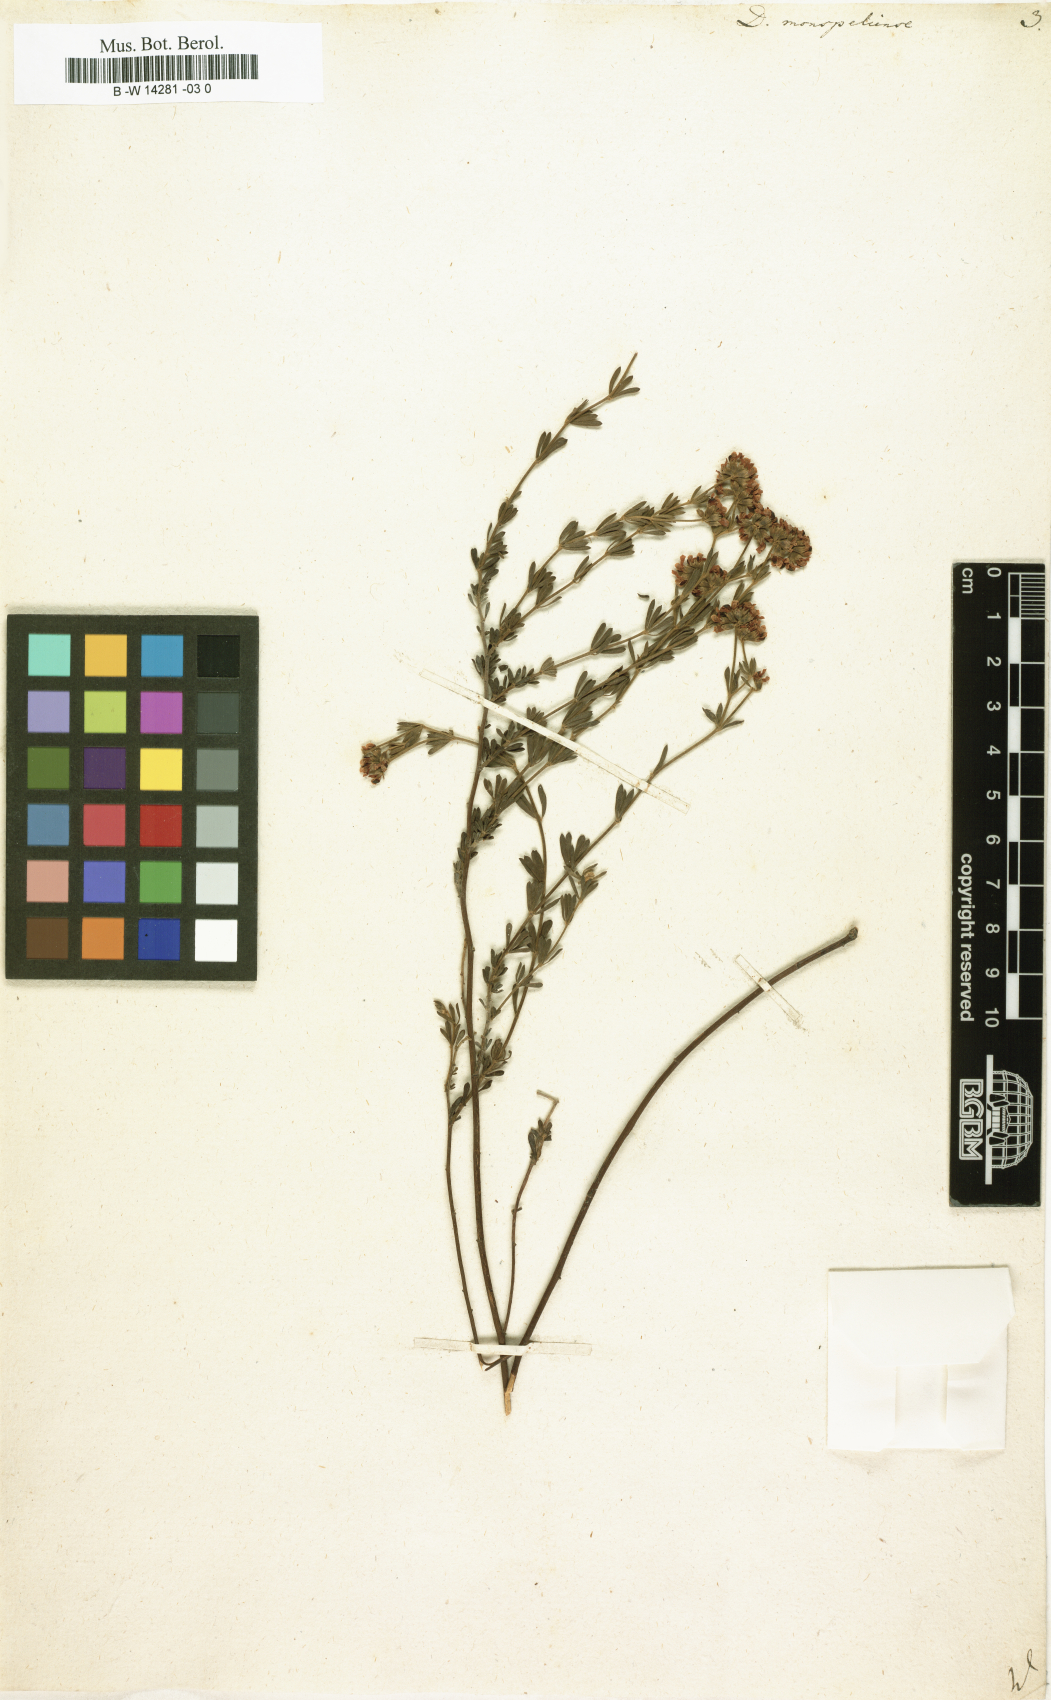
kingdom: Plantae
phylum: Tracheophyta
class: Magnoliopsida
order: Fabales
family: Fabaceae
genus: Lotus
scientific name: Lotus dorycnium
